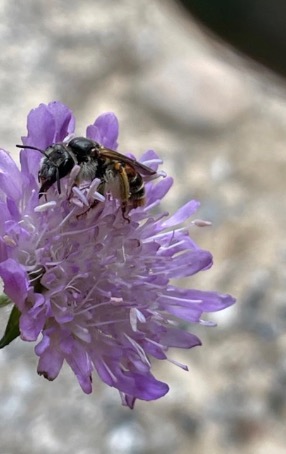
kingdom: Animalia
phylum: Arthropoda
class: Insecta
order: Hymenoptera
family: Andrenidae
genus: Andrena
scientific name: Andrena hattorfiana
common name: Blåhatjordbi
